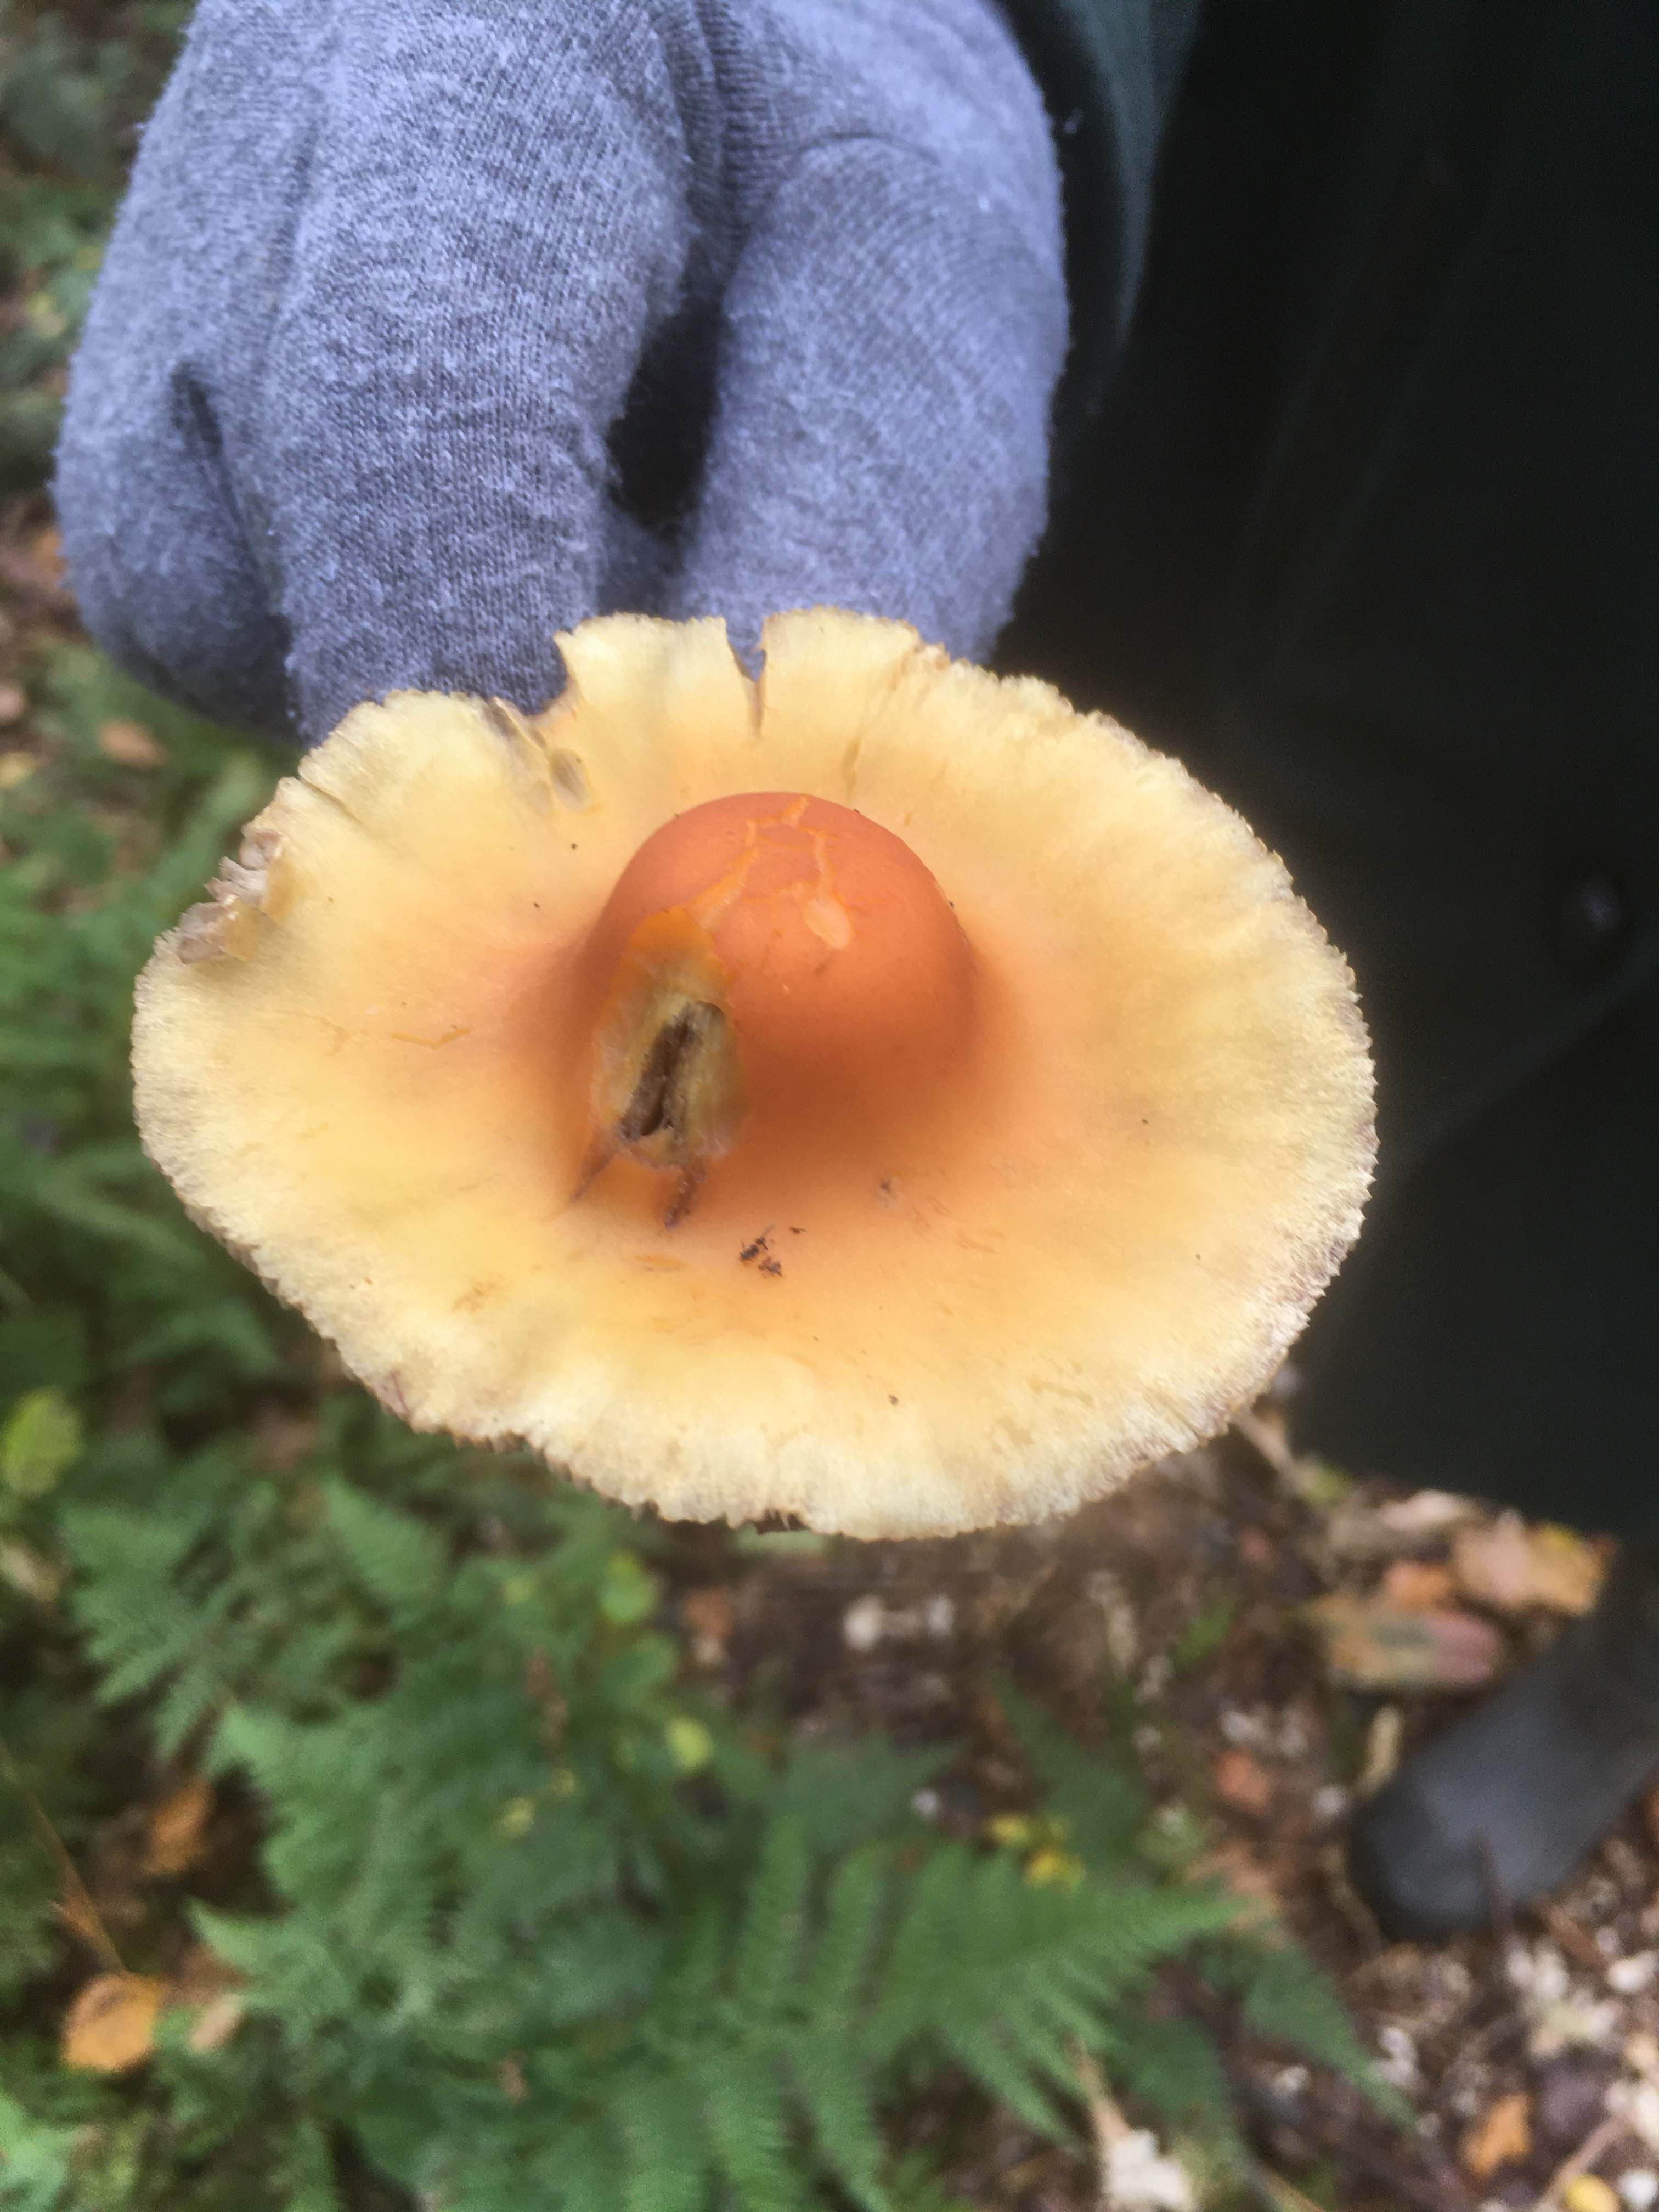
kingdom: Fungi
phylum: Basidiomycota
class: Agaricomycetes
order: Agaricales
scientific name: Agaricales
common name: champignonordenen
